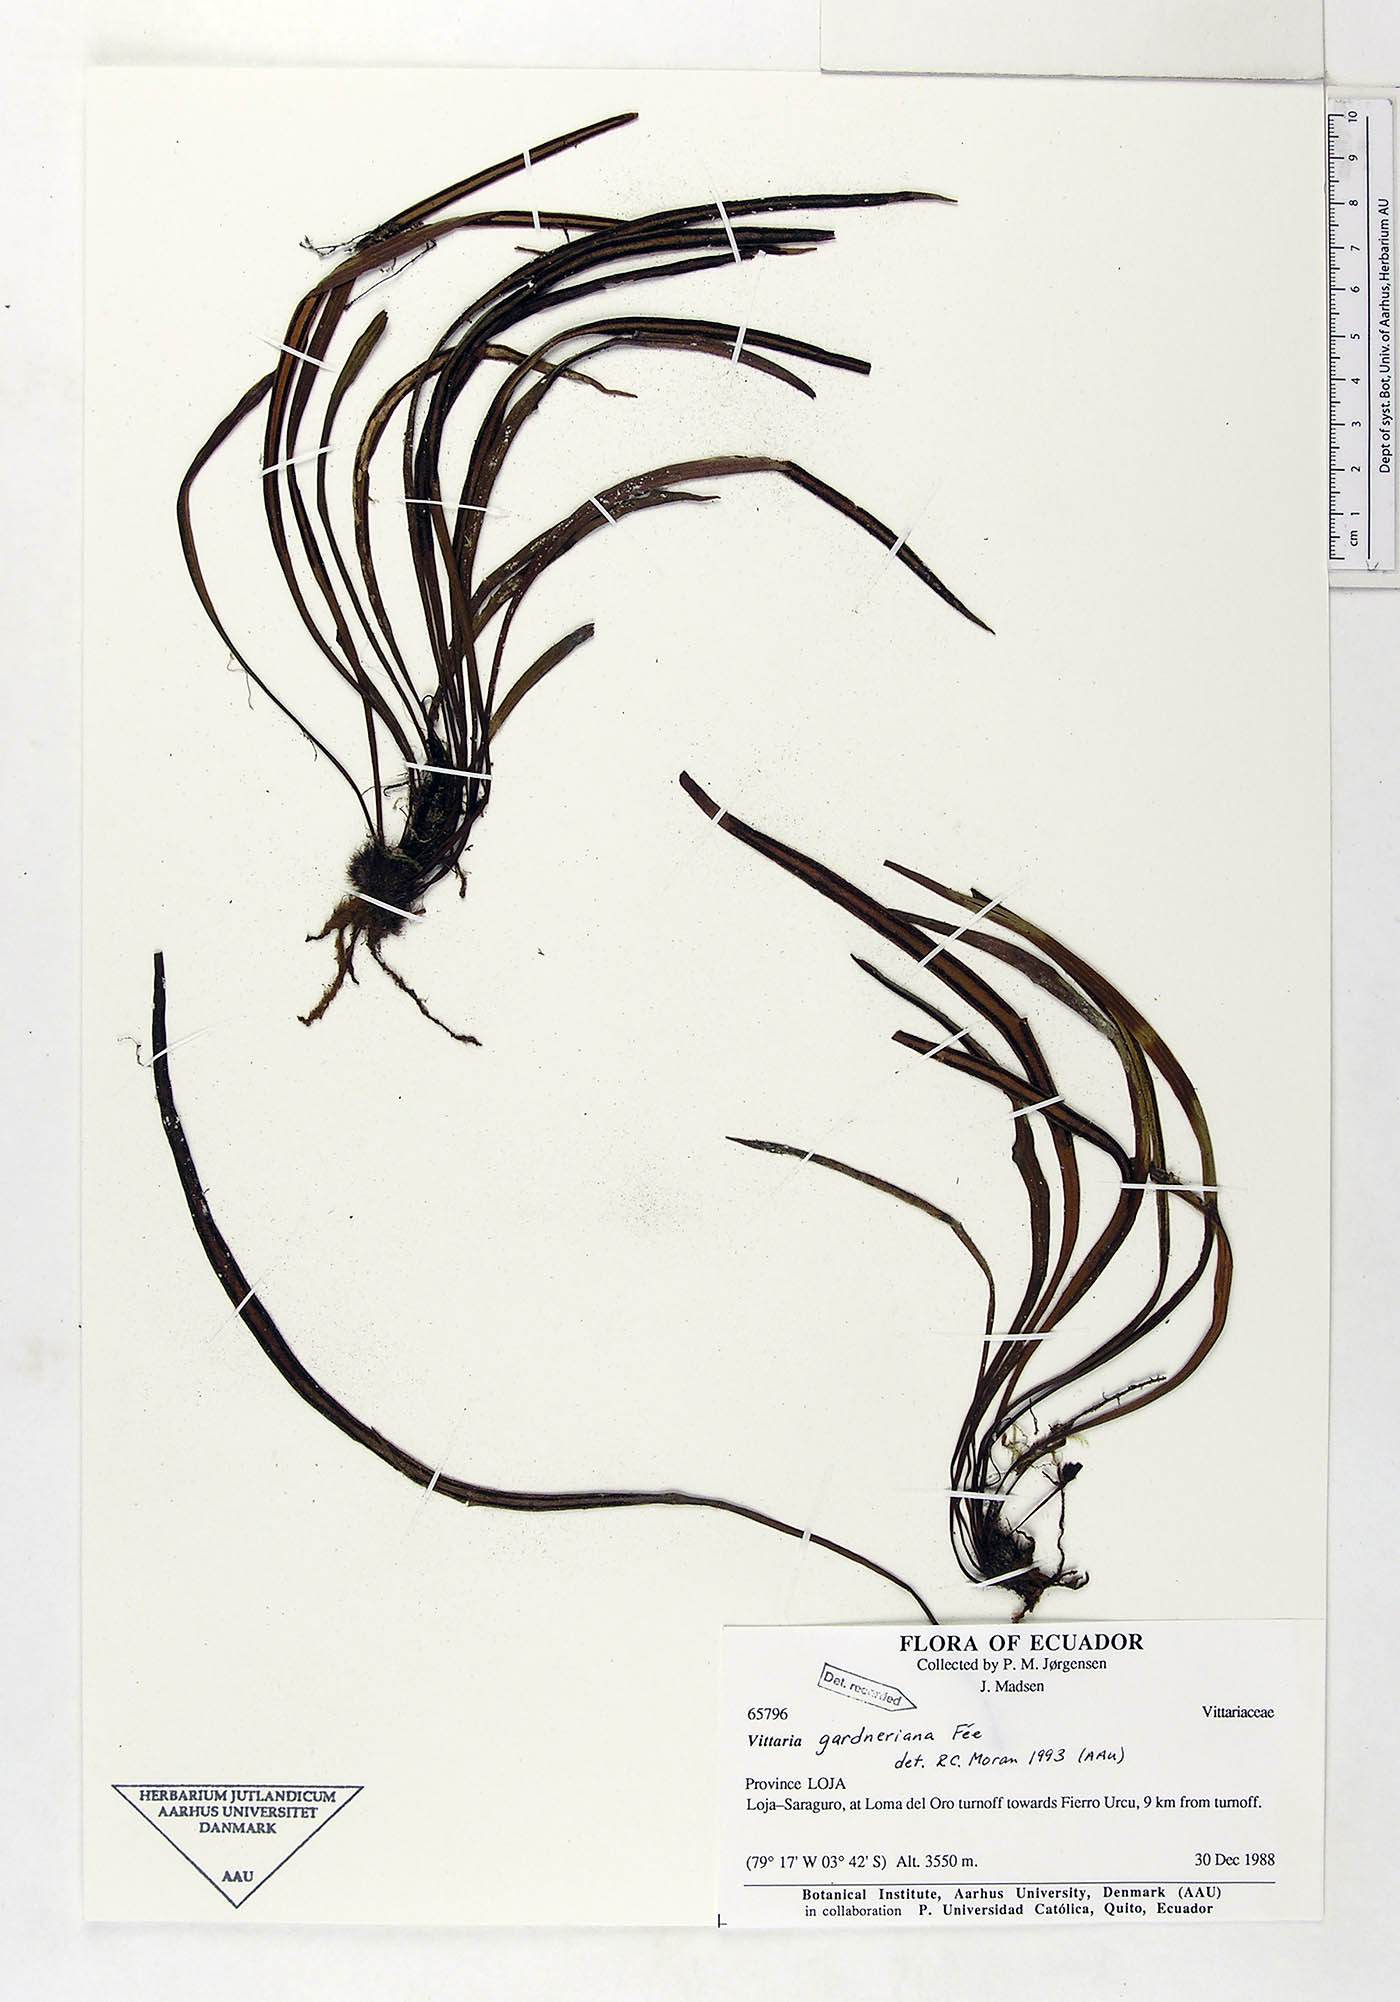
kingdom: Plantae
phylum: Tracheophyta
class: Polypodiopsida
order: Polypodiales
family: Pteridaceae
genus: Radiovittaria
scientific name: Radiovittaria gardneriana
